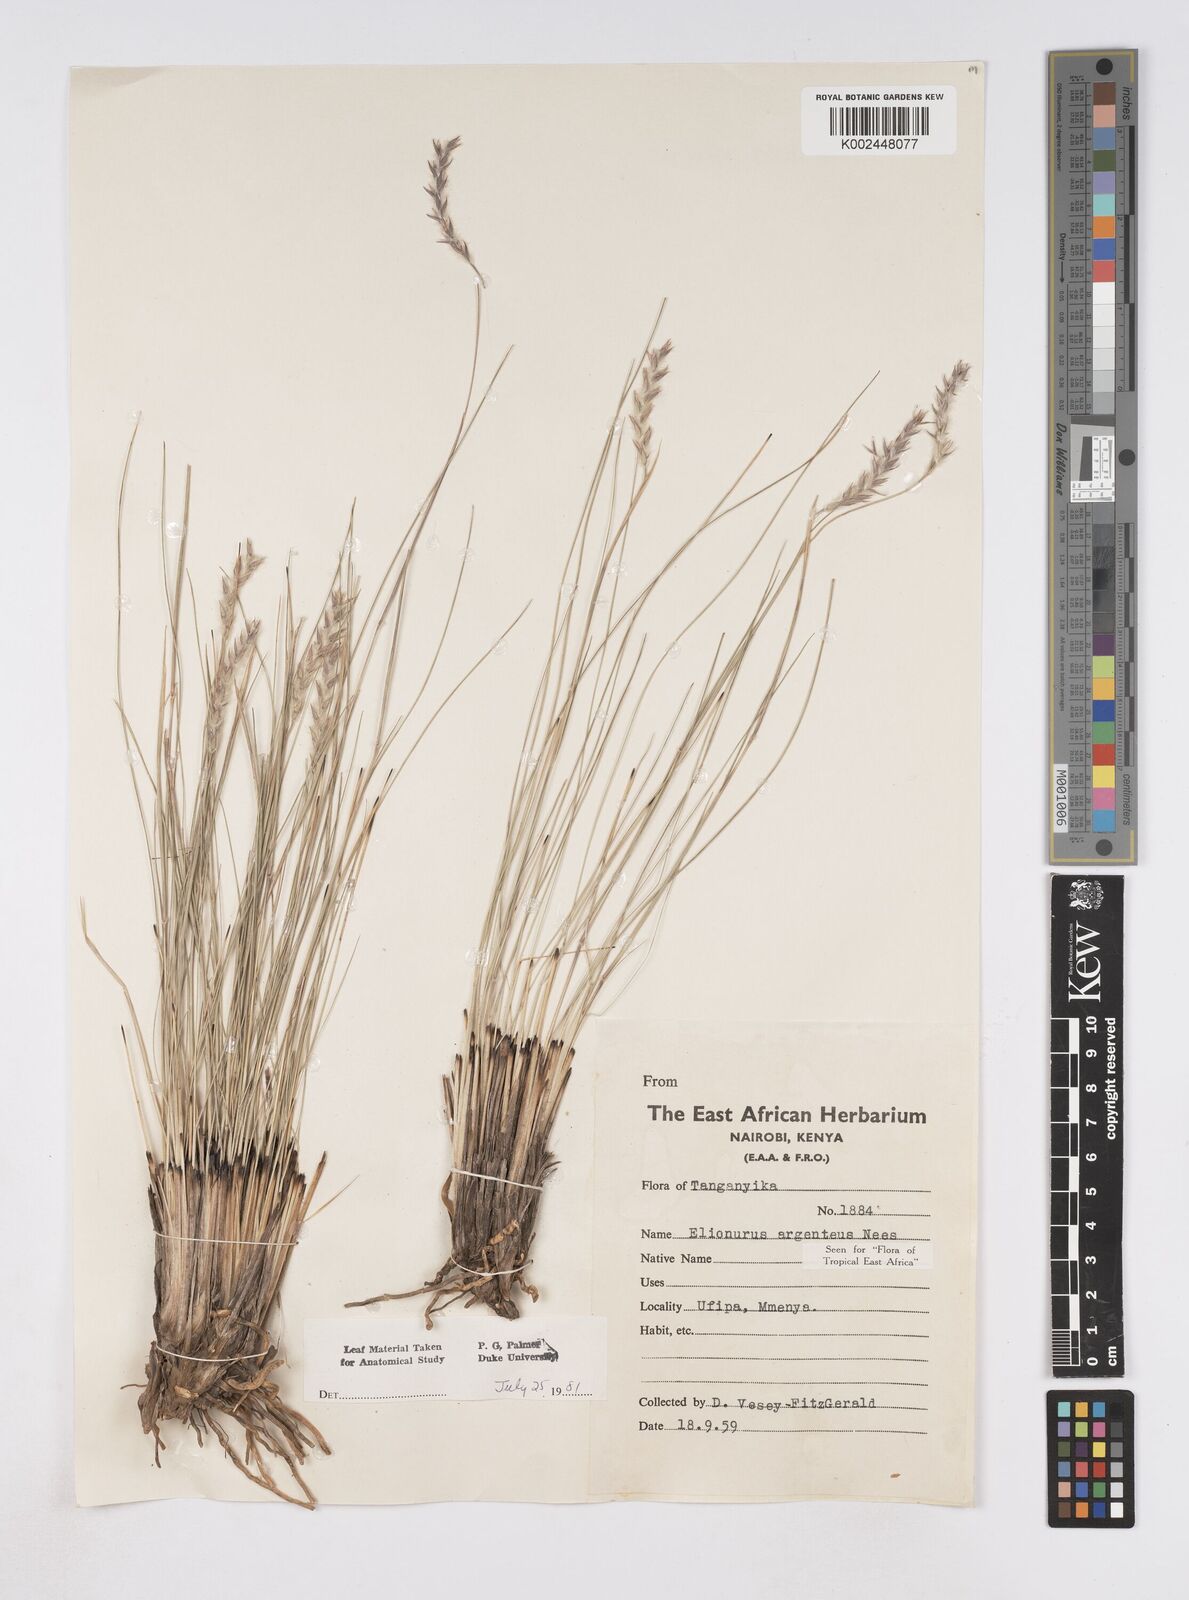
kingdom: Plantae
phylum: Tracheophyta
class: Liliopsida
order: Poales
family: Poaceae
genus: Elionurus
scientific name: Elionurus muticus
